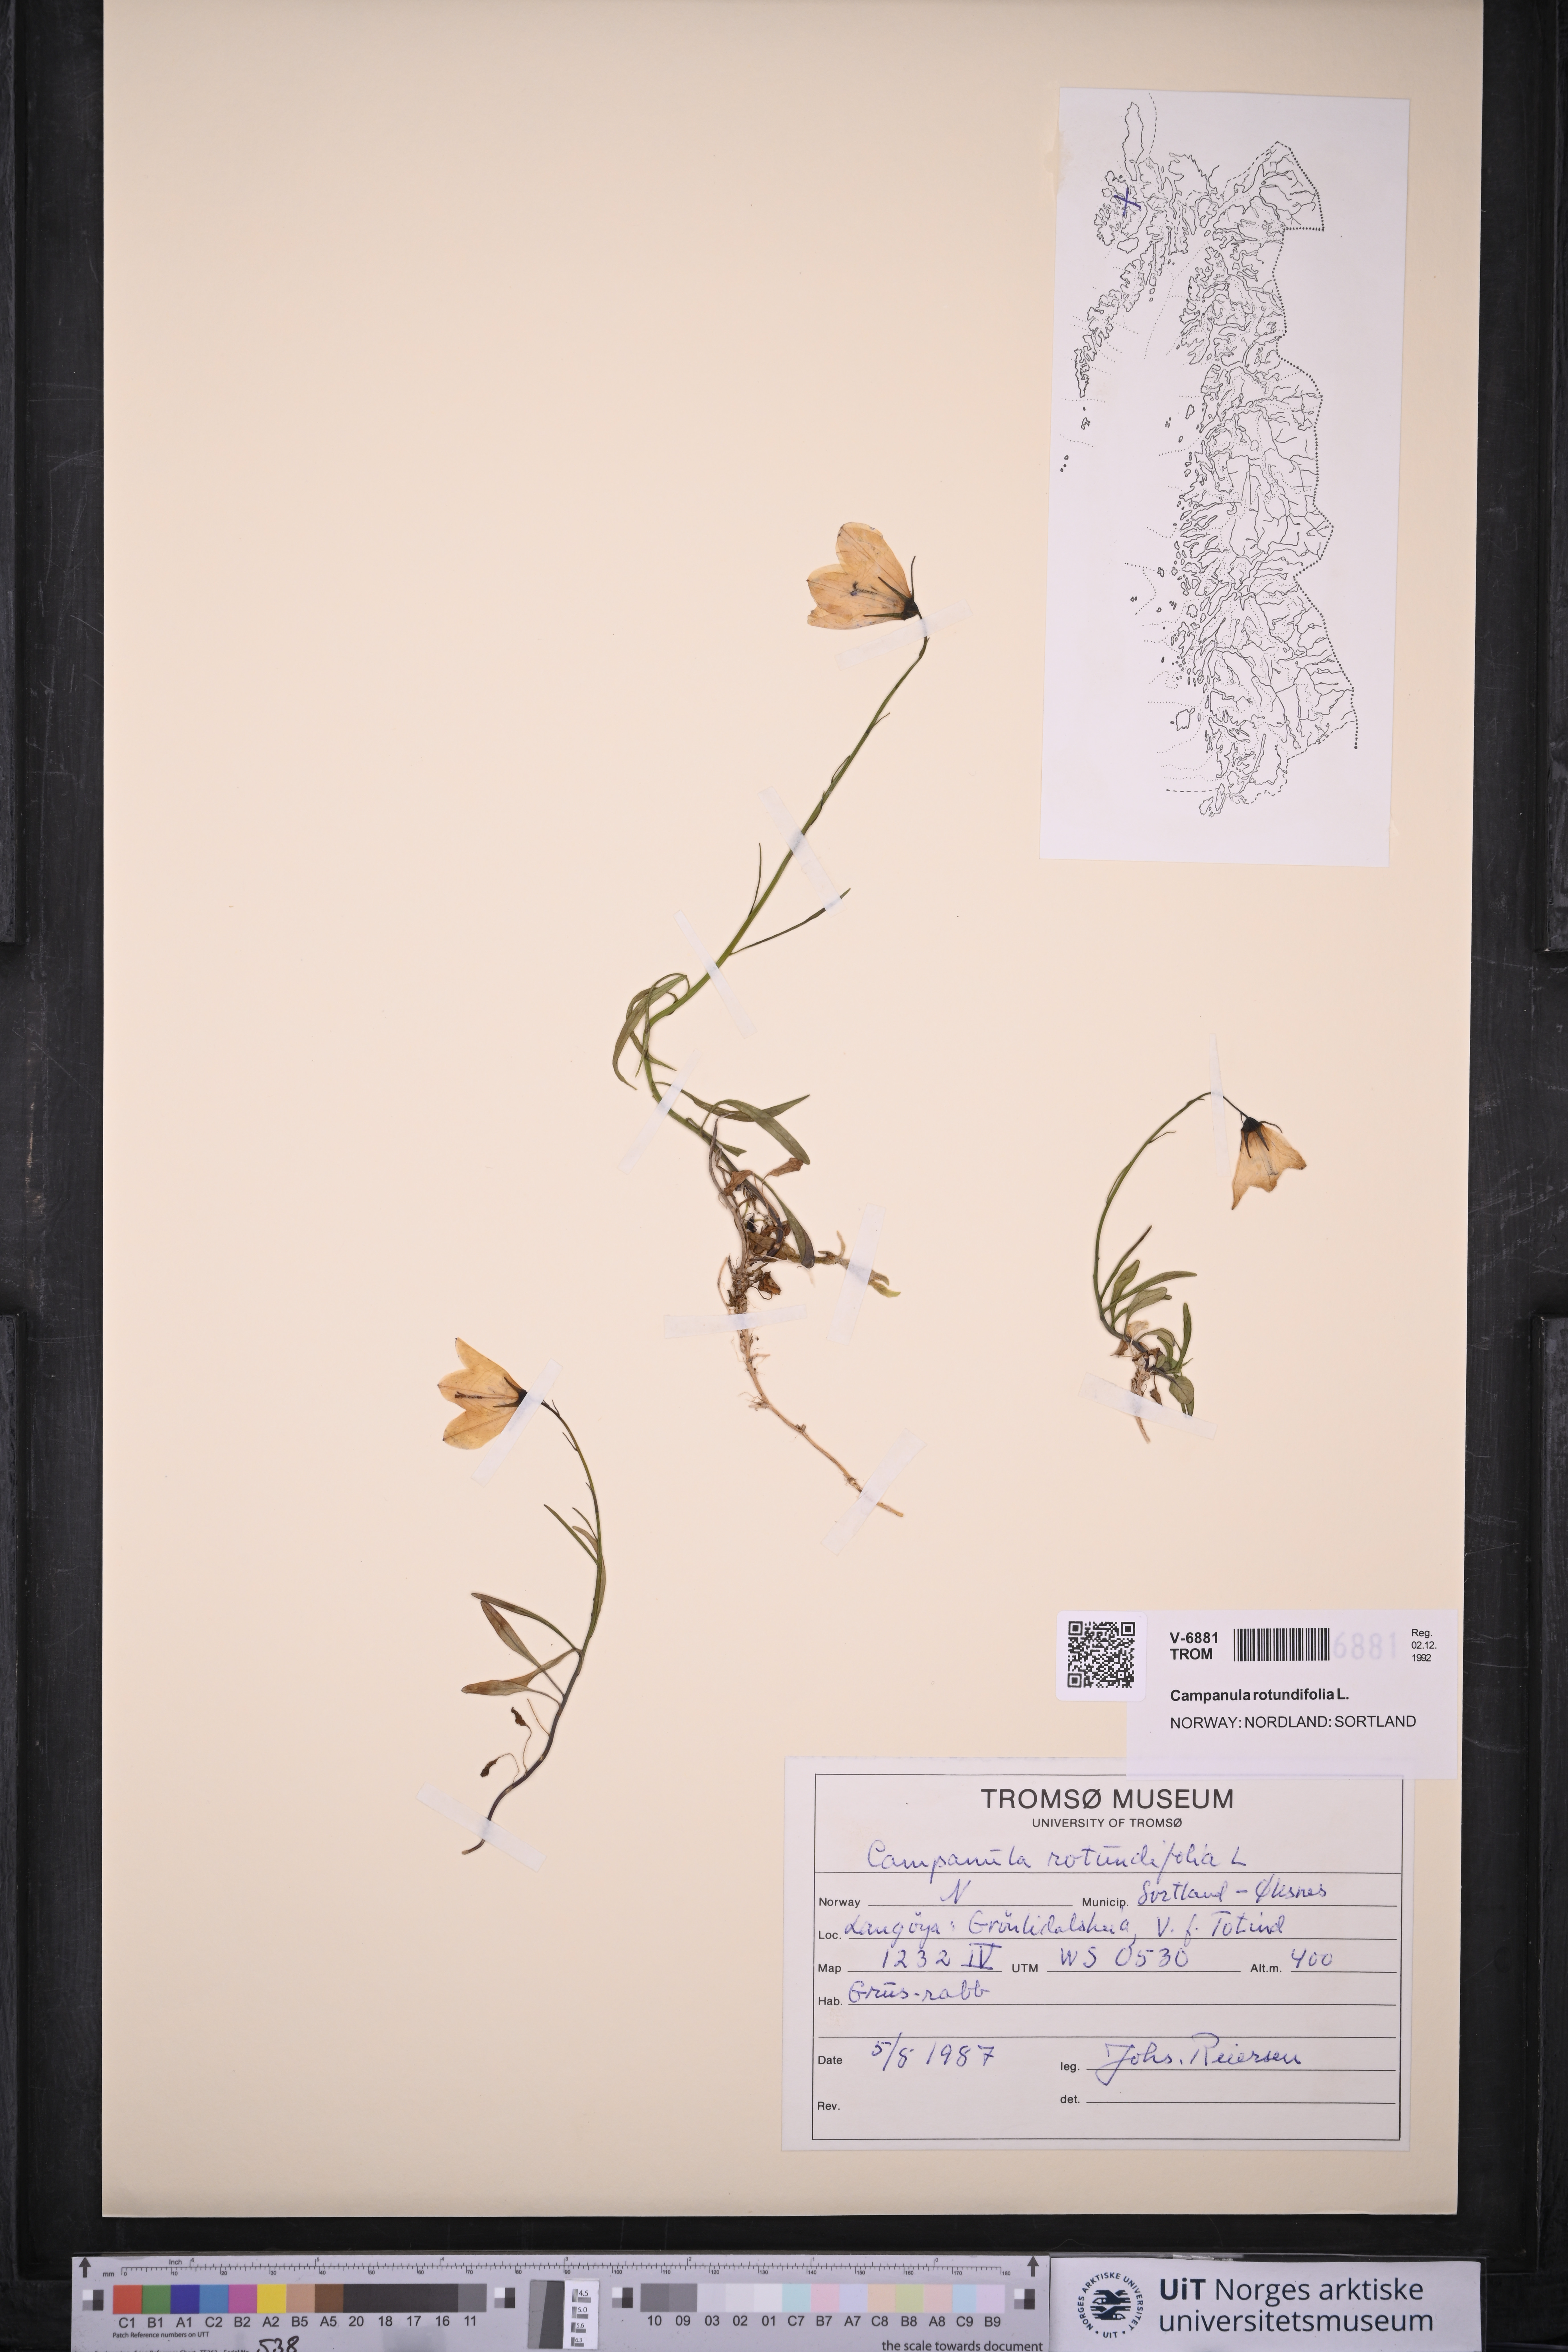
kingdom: Plantae
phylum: Tracheophyta
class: Magnoliopsida
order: Asterales
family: Campanulaceae
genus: Campanula
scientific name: Campanula rotundifolia
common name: Harebell
